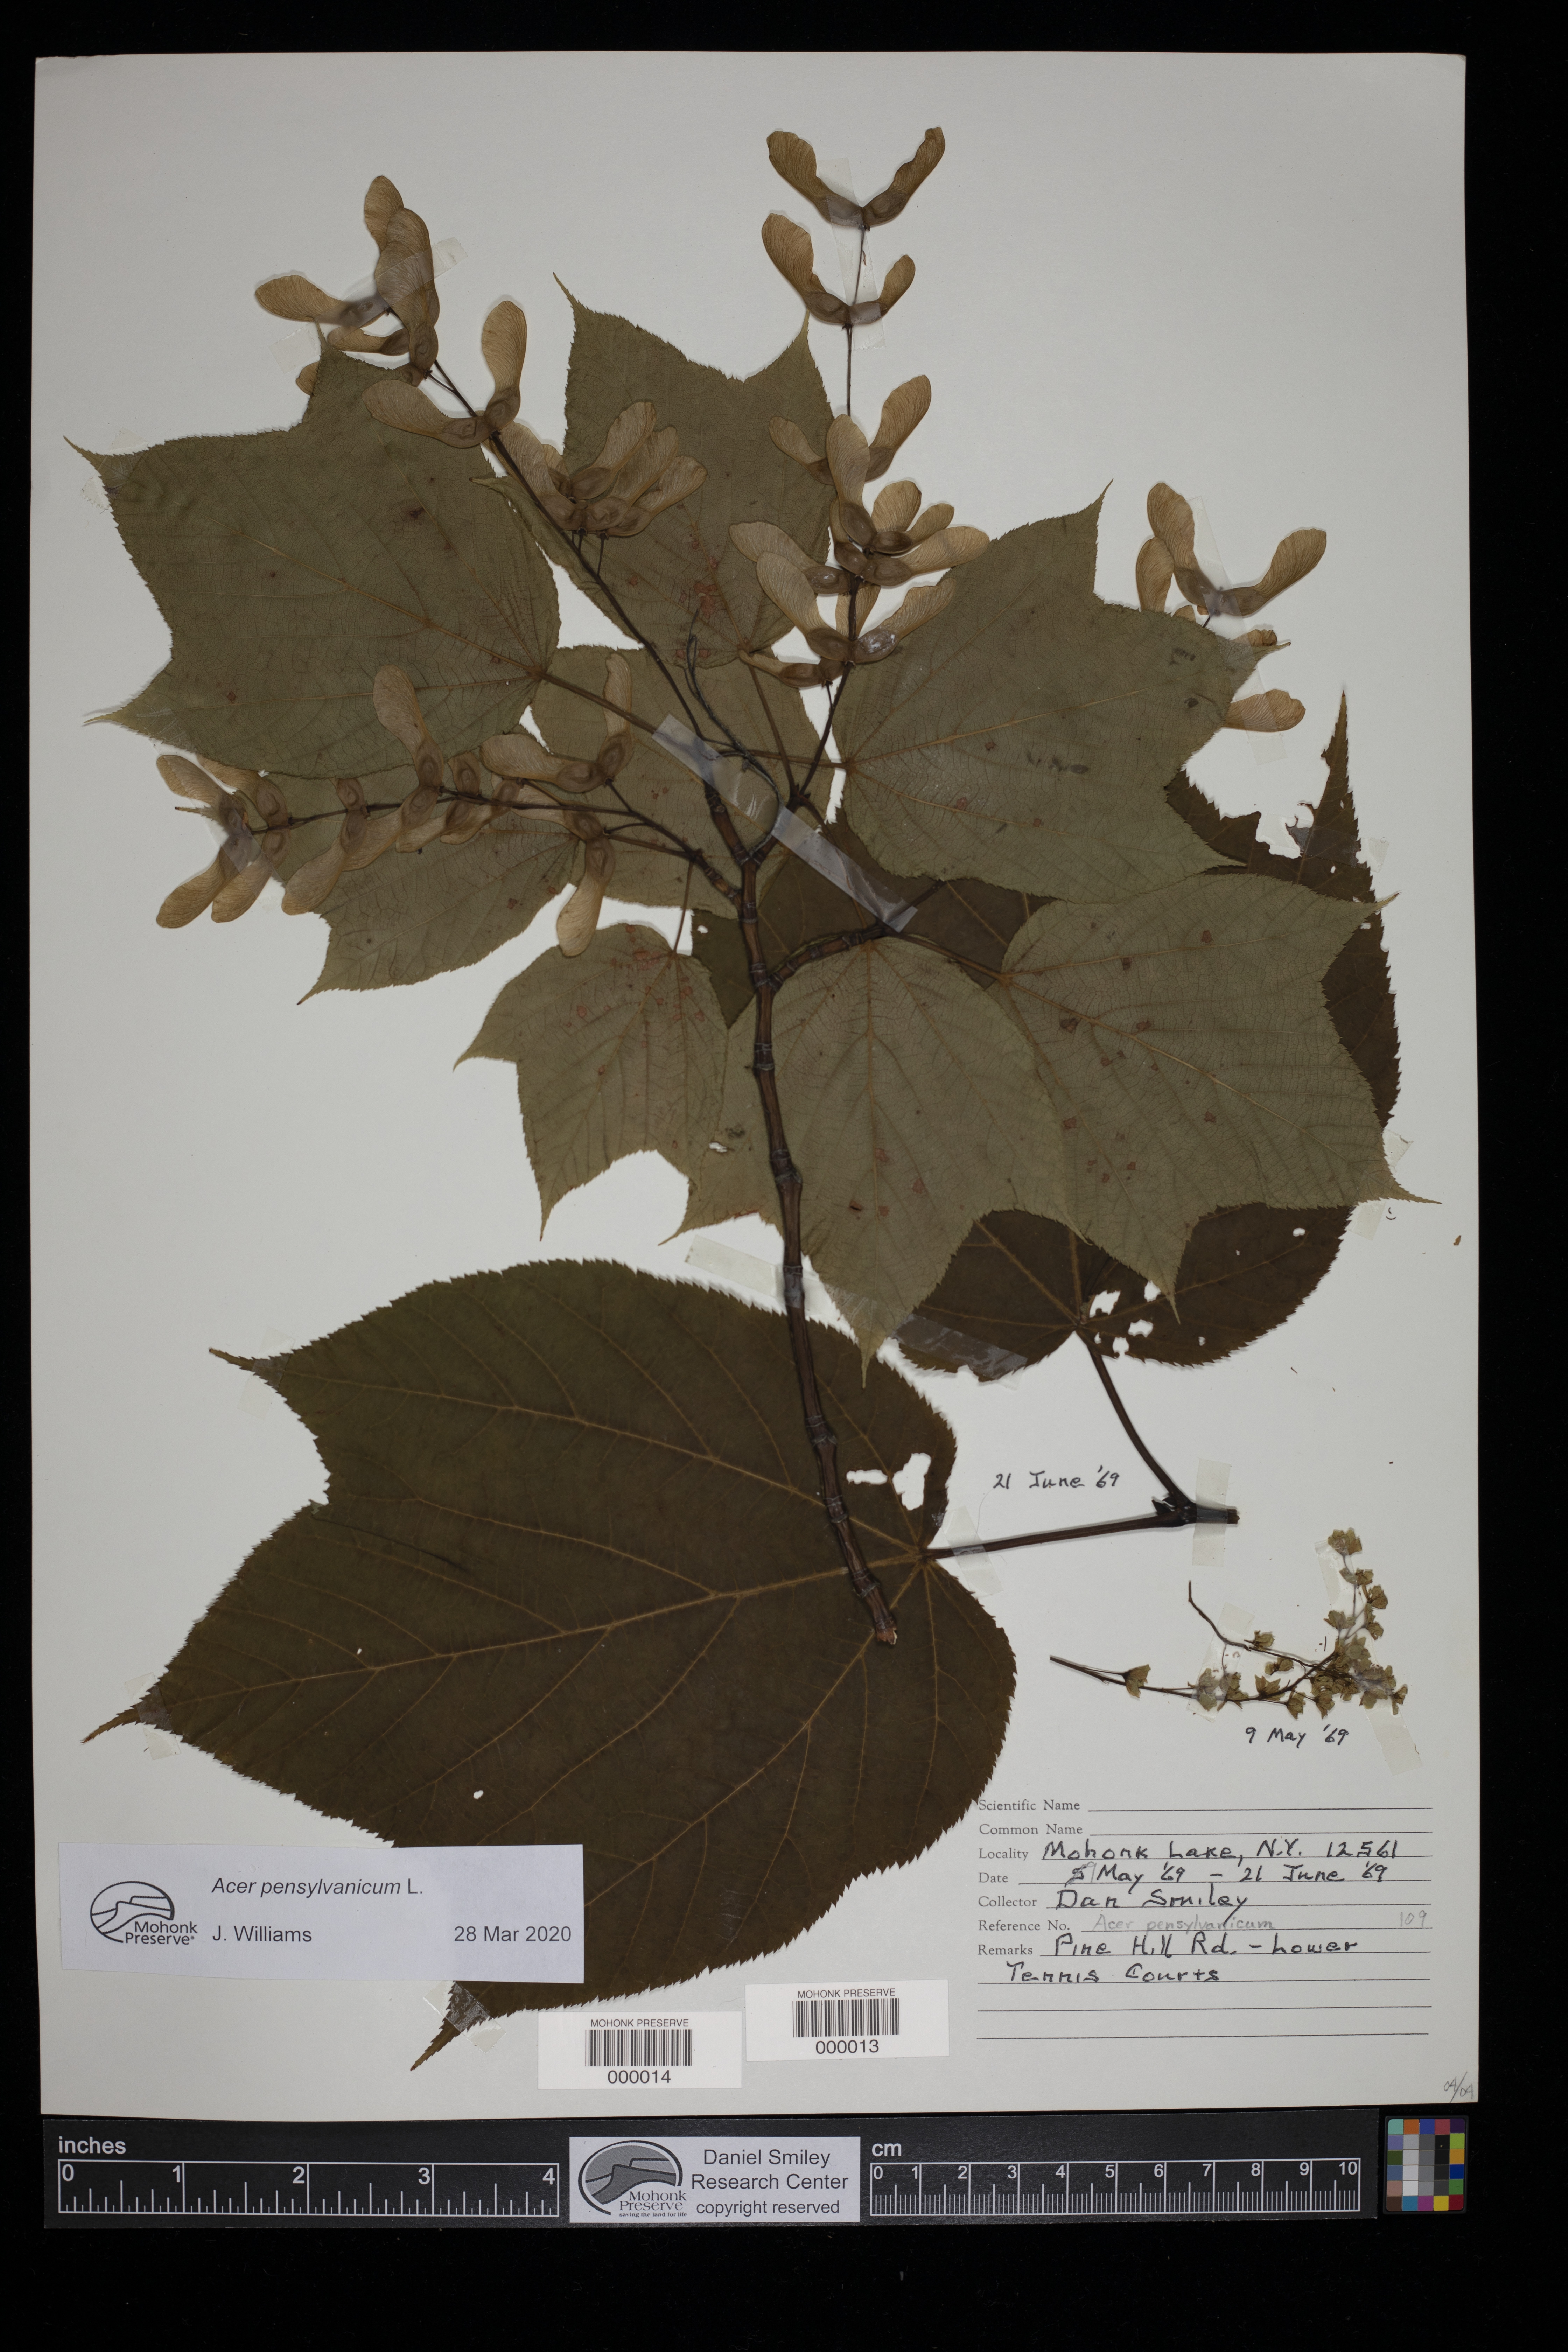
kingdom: Plantae
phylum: Tracheophyta
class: Magnoliopsida
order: Sapindales
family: Sapindaceae
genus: Acer
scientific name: Acer pensylvanicum
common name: Moosewood
